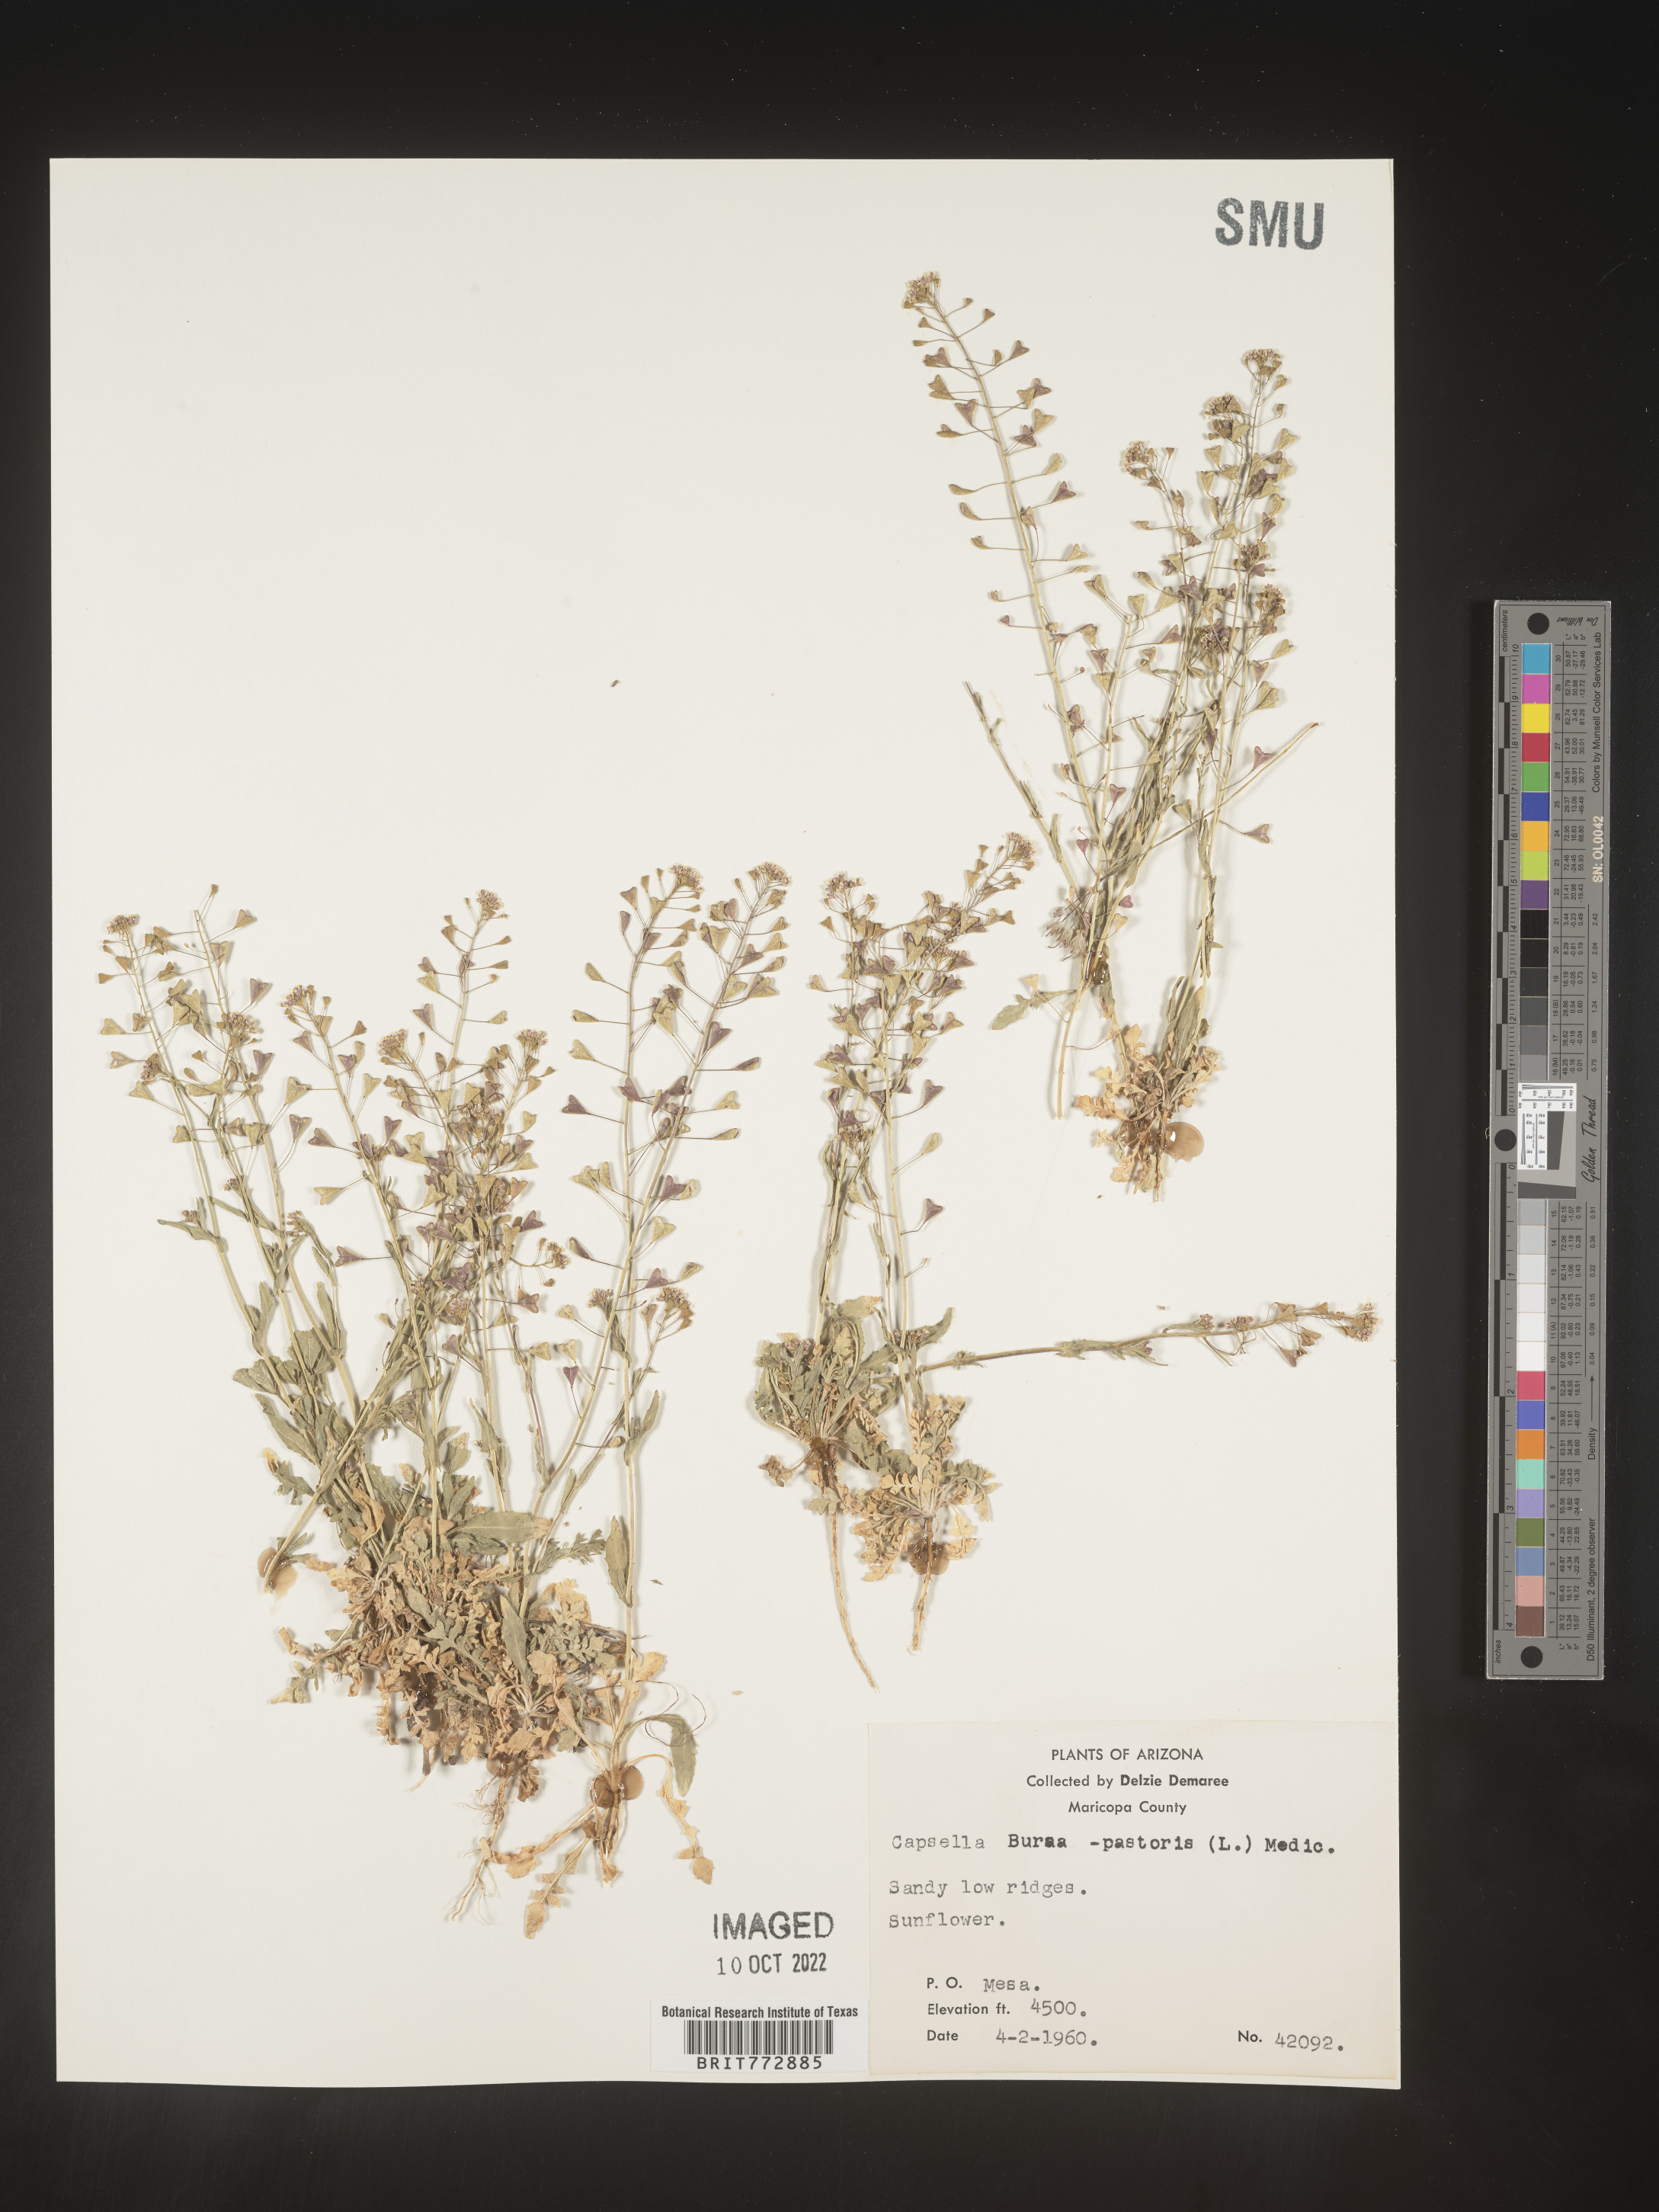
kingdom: Plantae
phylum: Tracheophyta
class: Magnoliopsida
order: Brassicales
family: Brassicaceae
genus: Capsella
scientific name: Capsella bursa-pastoris
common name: Shepherd's purse
